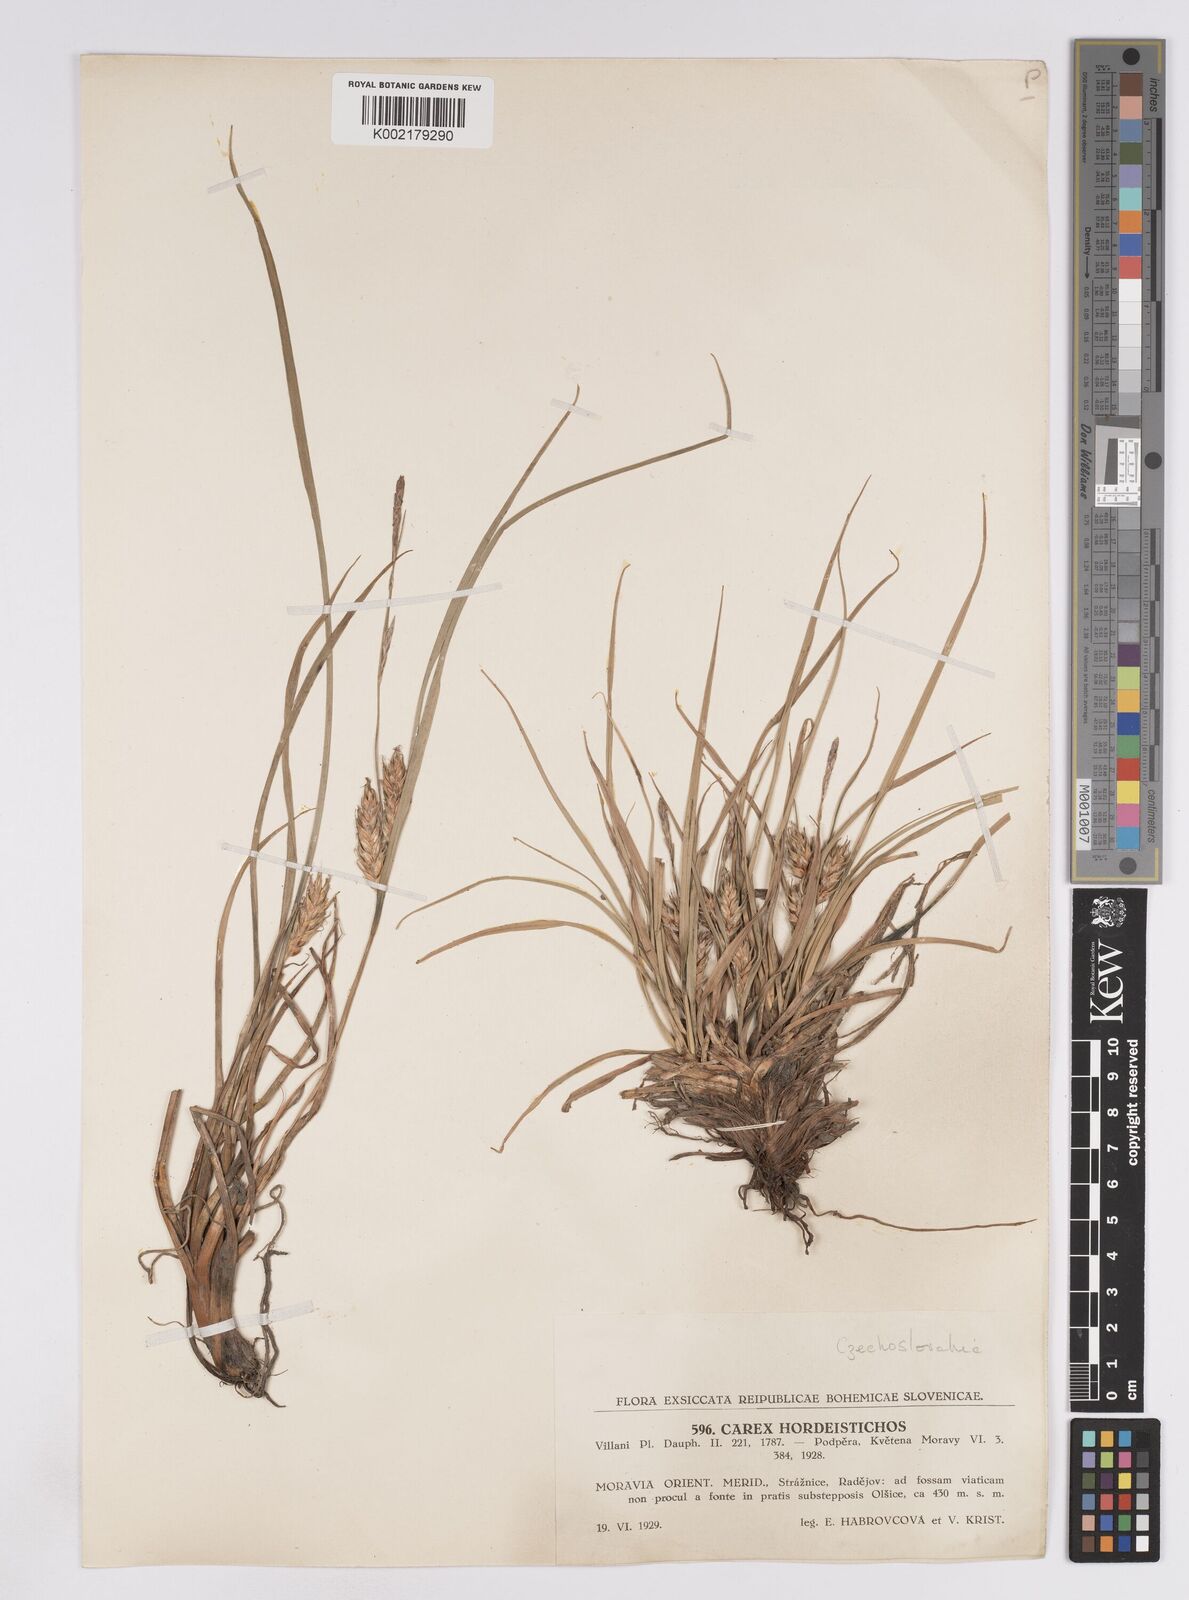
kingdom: Plantae
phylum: Tracheophyta
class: Liliopsida
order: Poales
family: Cyperaceae
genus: Carex
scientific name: Carex hordeistichos
